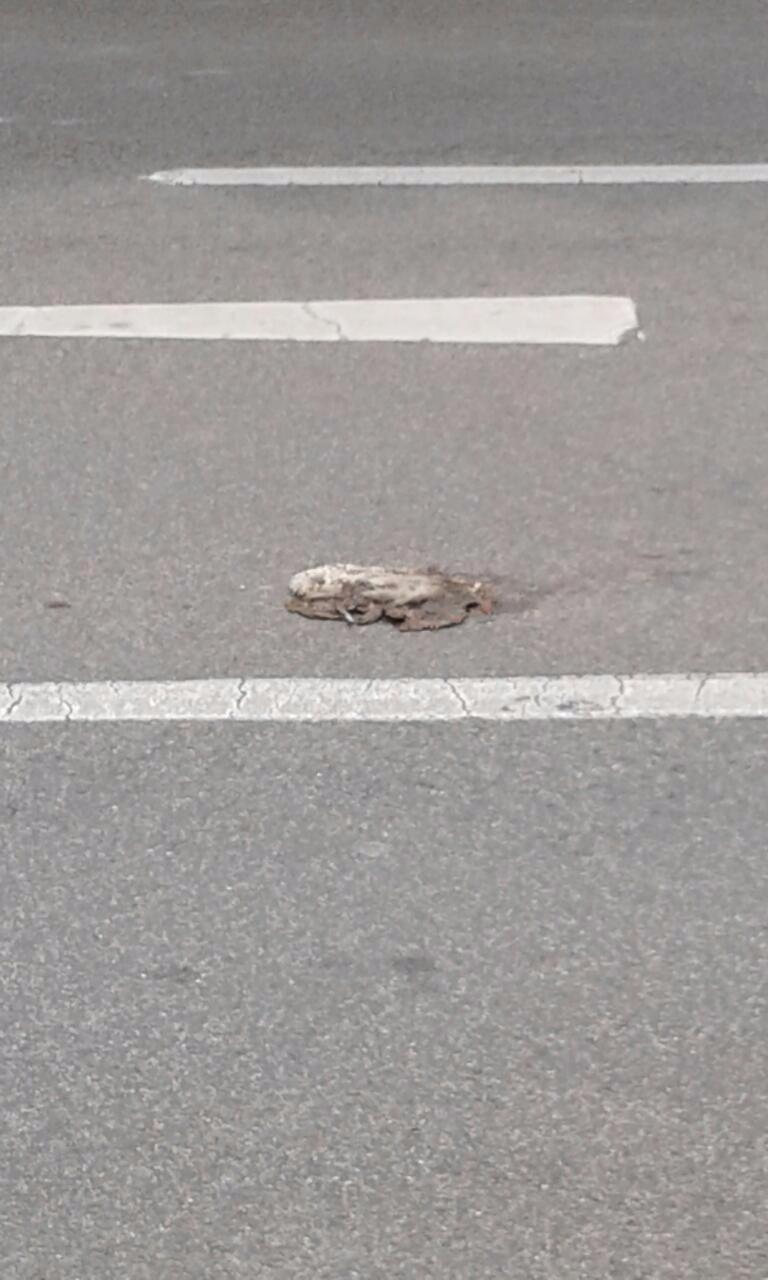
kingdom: Animalia
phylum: Chordata
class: Mammalia
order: Erinaceomorpha
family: Erinaceidae
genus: Erinaceus
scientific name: Erinaceus
